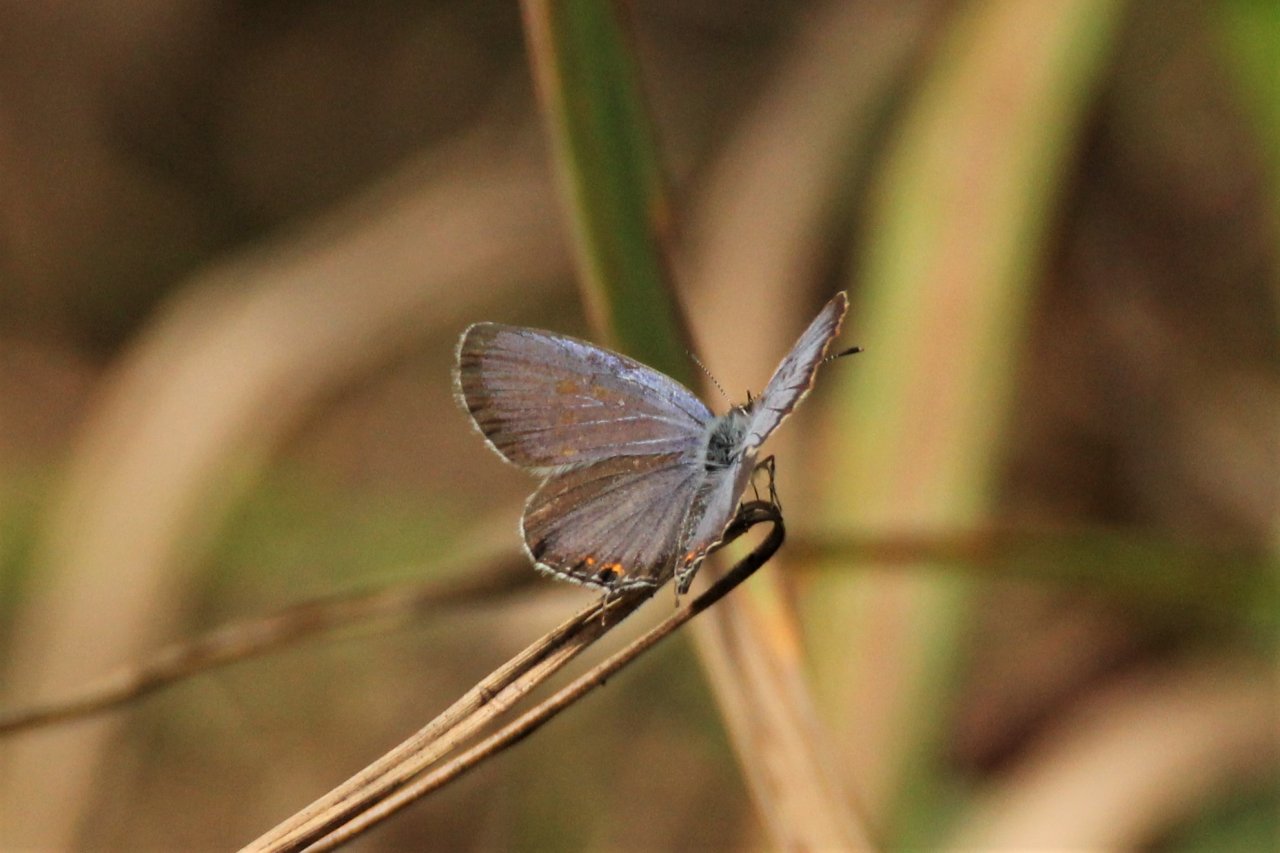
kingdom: Animalia
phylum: Arthropoda
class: Insecta
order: Lepidoptera
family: Lycaenidae
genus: Elkalyce
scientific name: Elkalyce comyntas
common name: Eastern Tailed-Blue
